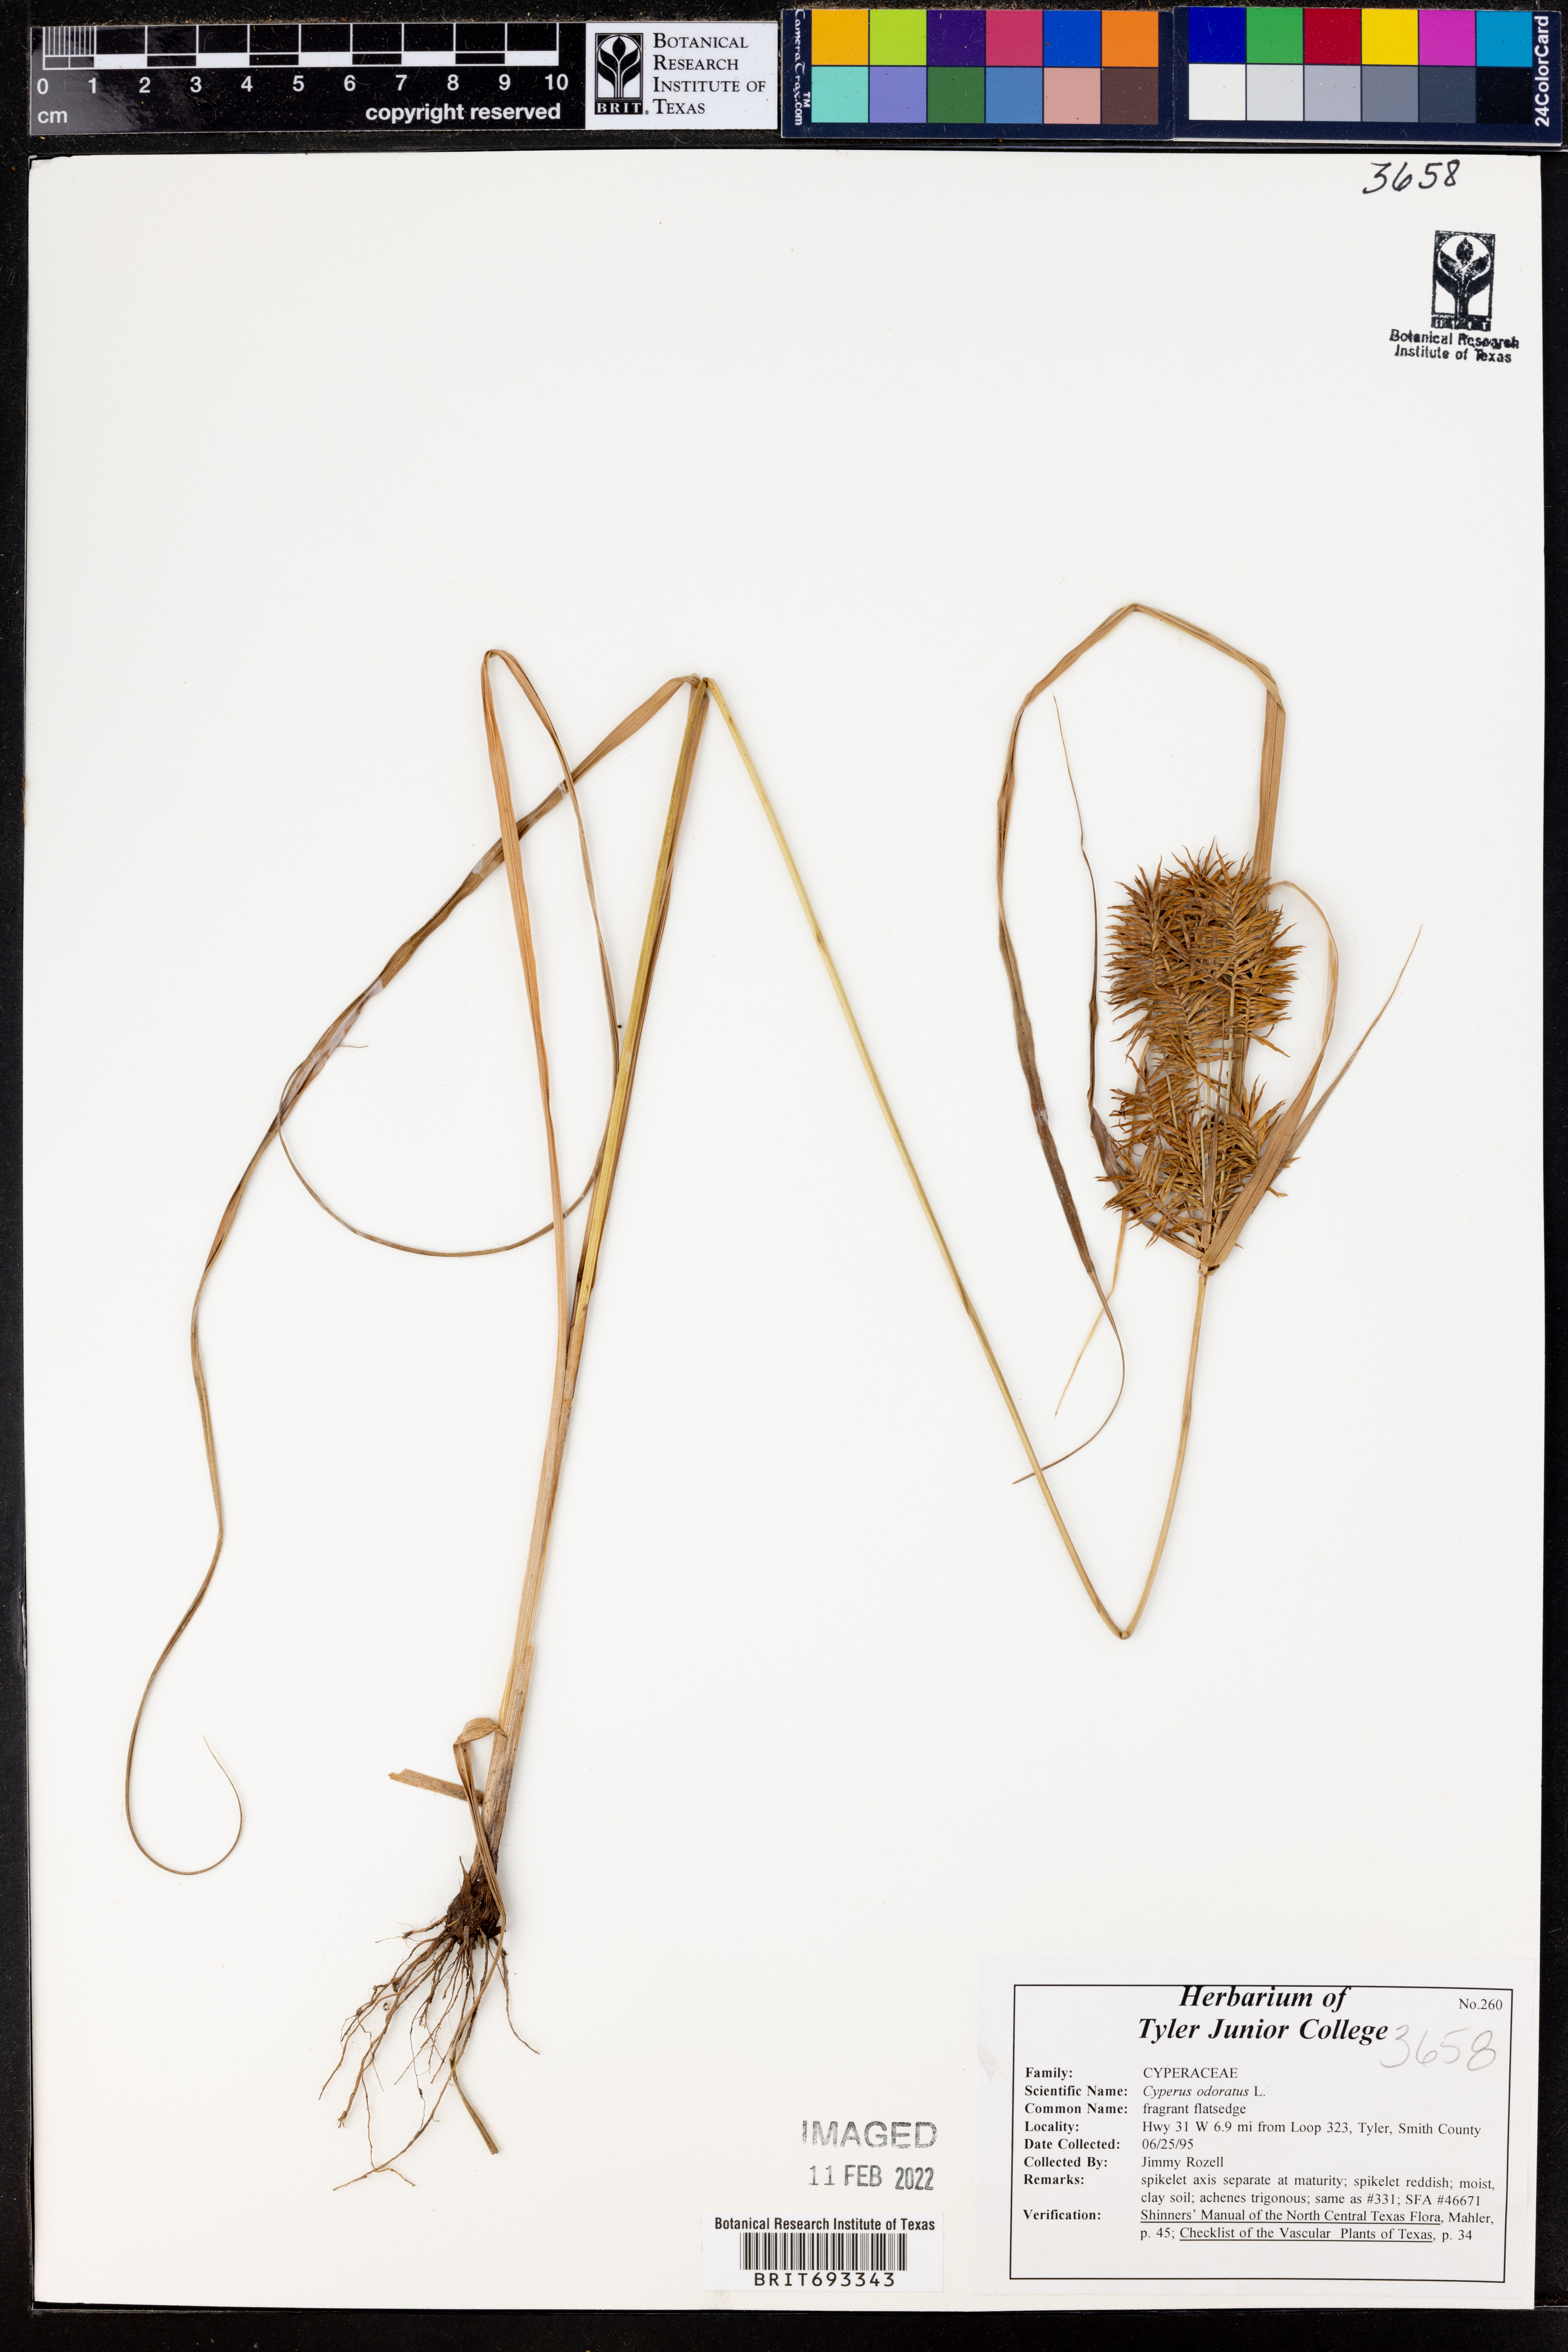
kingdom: Plantae
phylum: Tracheophyta
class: Liliopsida
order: Poales
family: Cyperaceae
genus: Cyperus
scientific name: Cyperus odoratus
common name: Fragrant flatsedge
